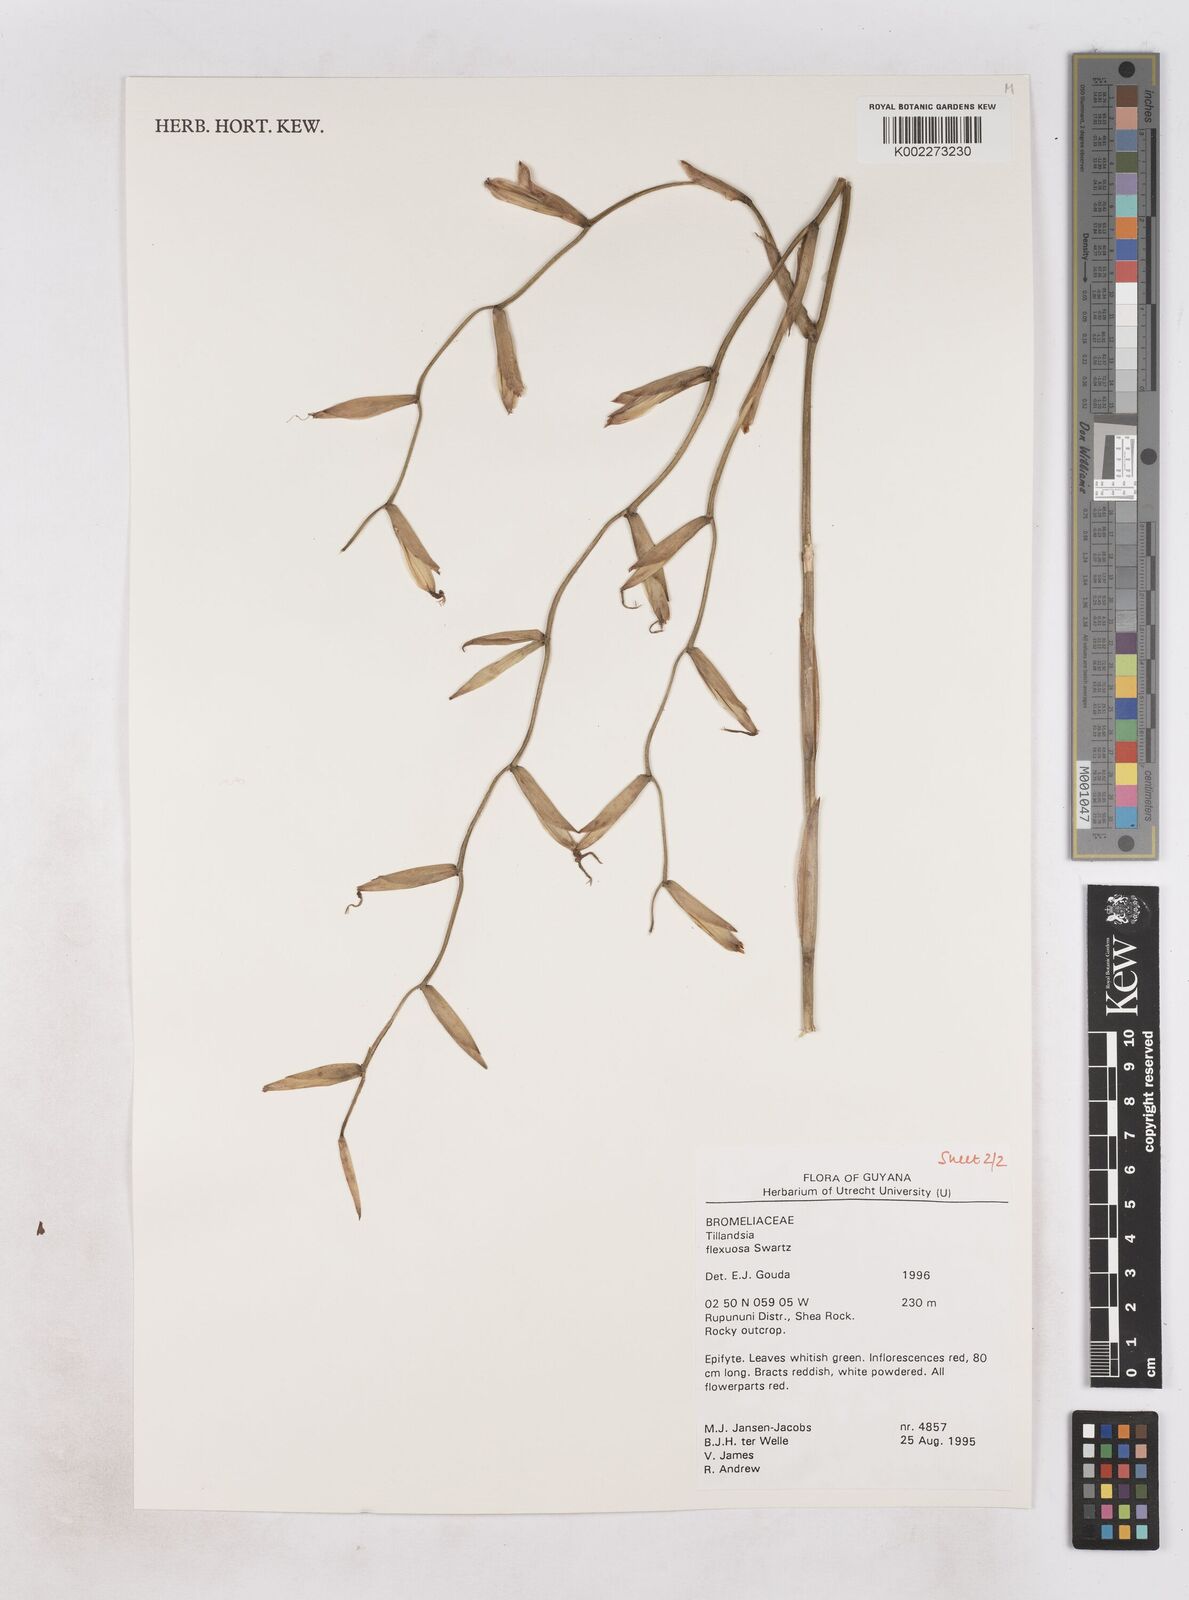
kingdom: Plantae
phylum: Tracheophyta
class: Liliopsida
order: Poales
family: Bromeliaceae
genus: Tillandsia
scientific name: Tillandsia flexuosa
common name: Banded airplant
